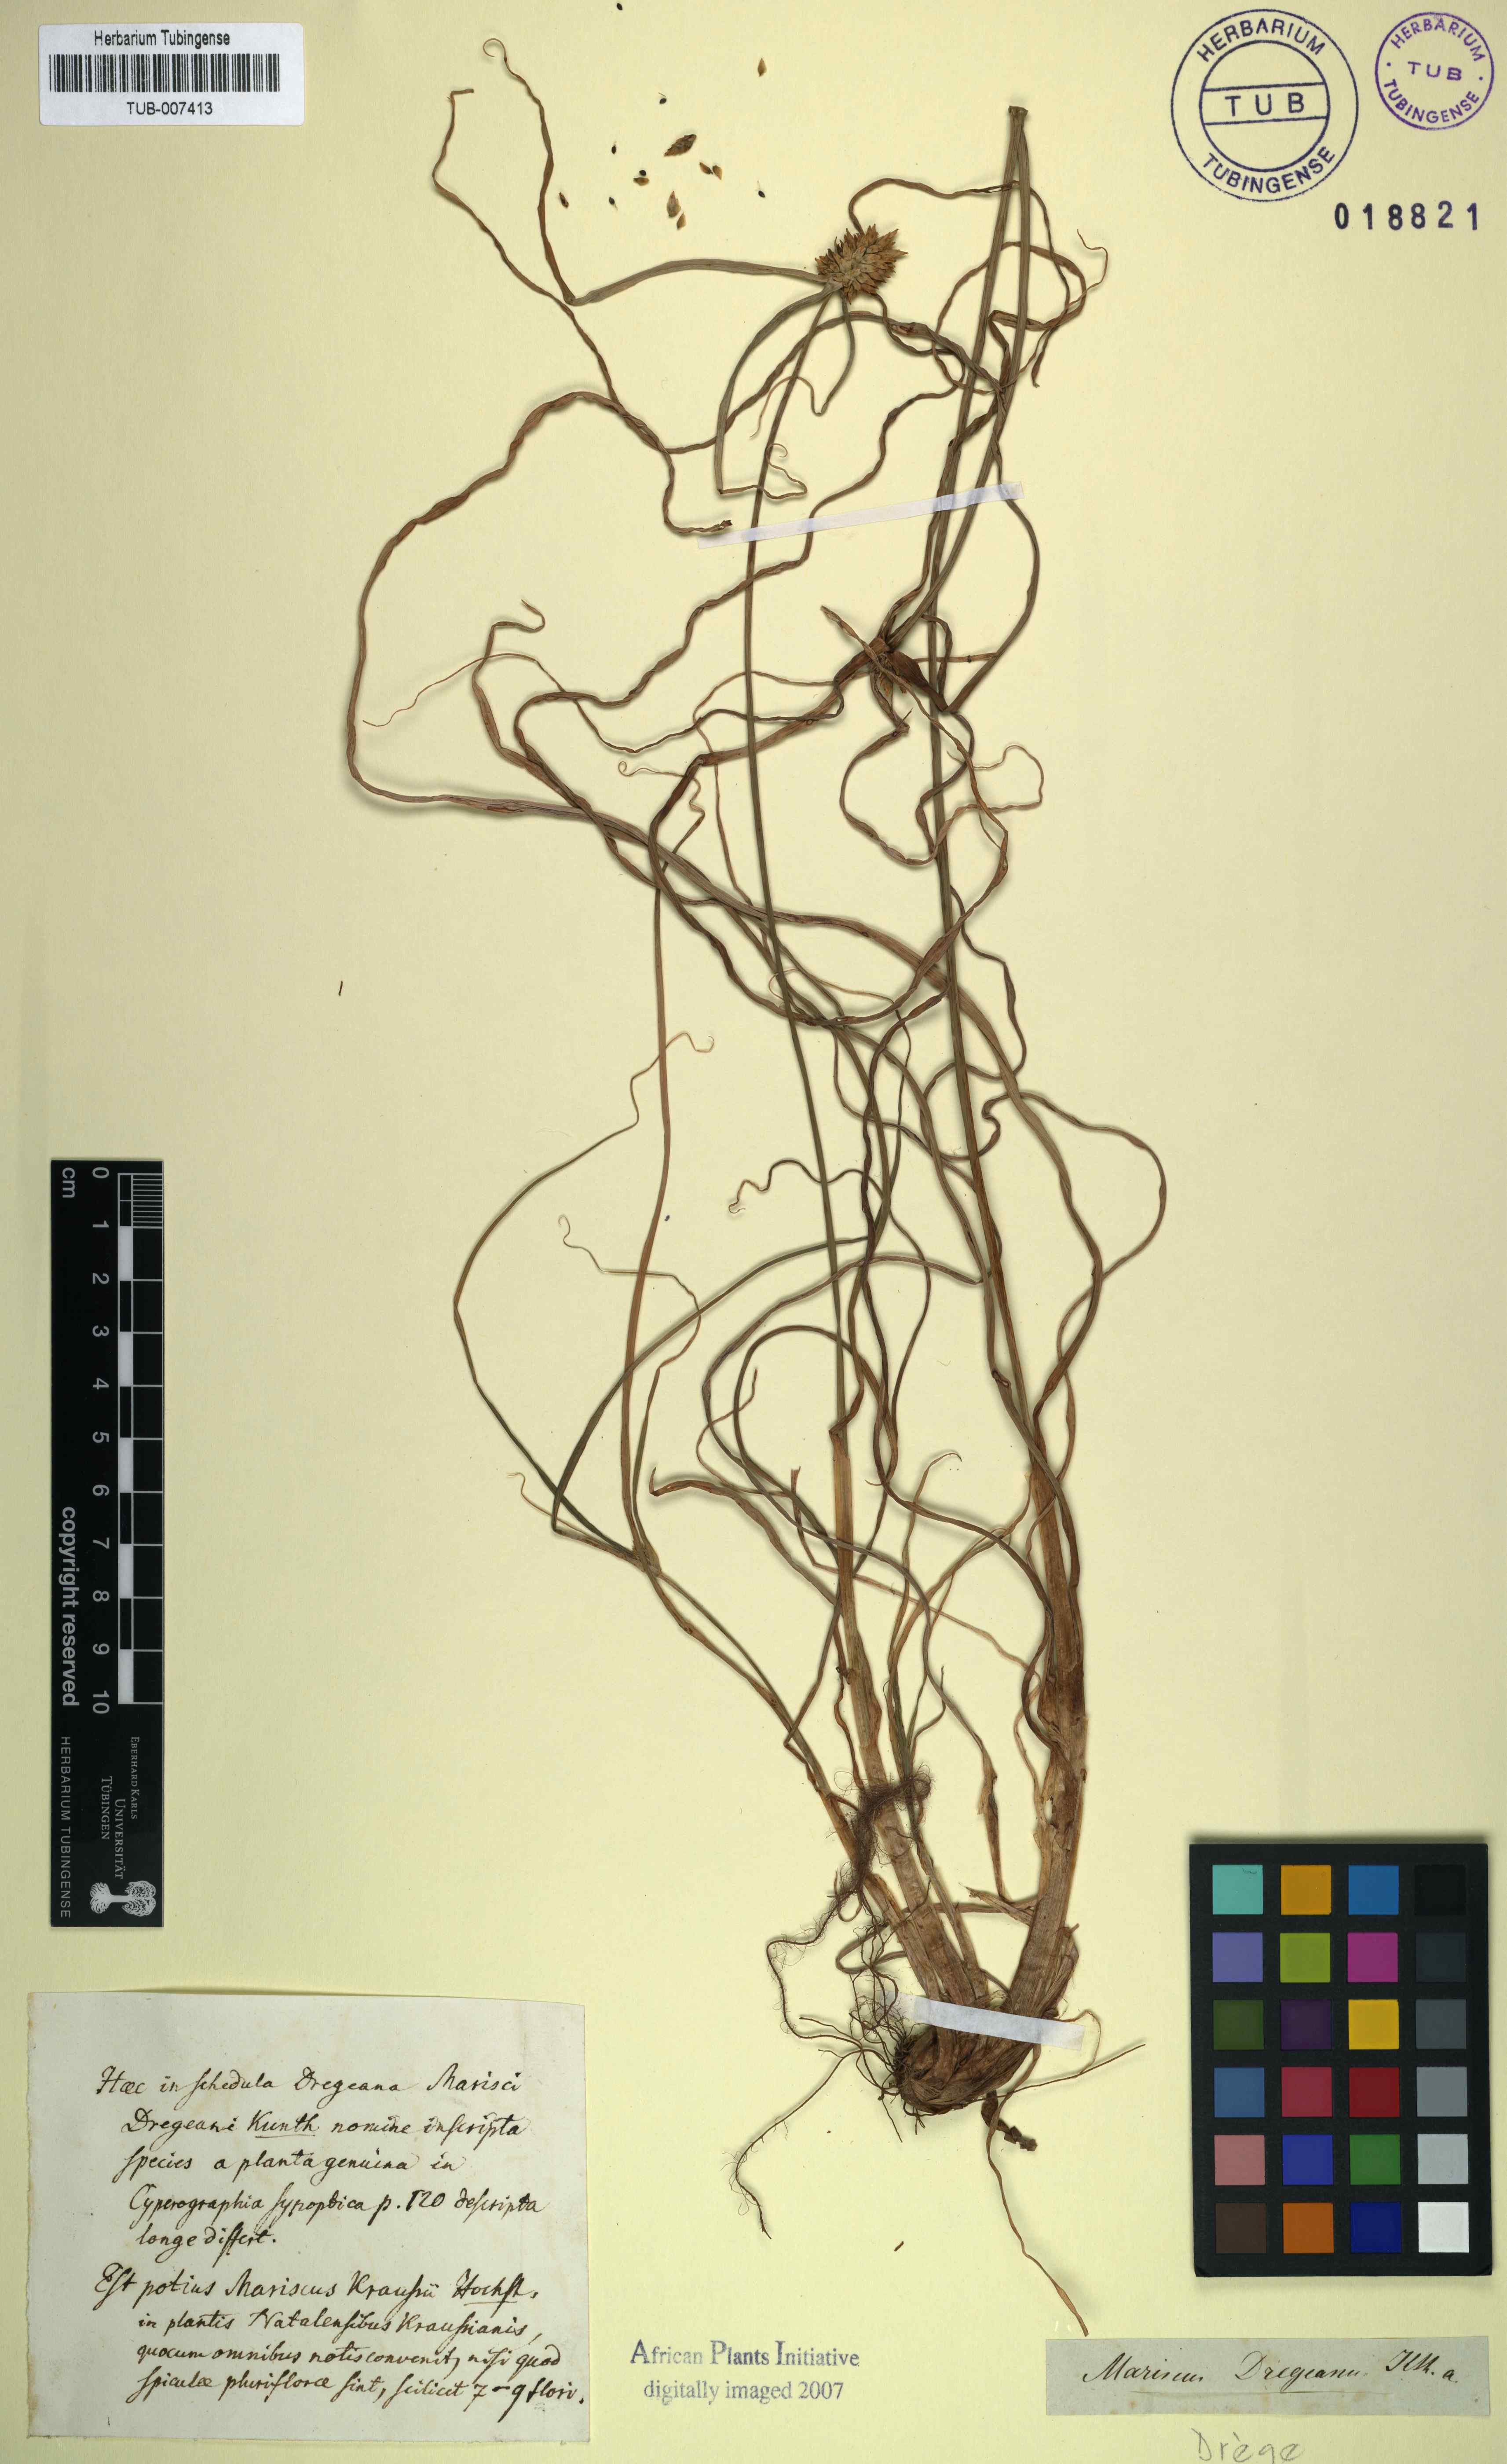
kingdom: Plantae
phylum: Tracheophyta
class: Liliopsida
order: Poales
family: Cyperaceae
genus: Cyperus
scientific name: Cyperus austroafricanus
